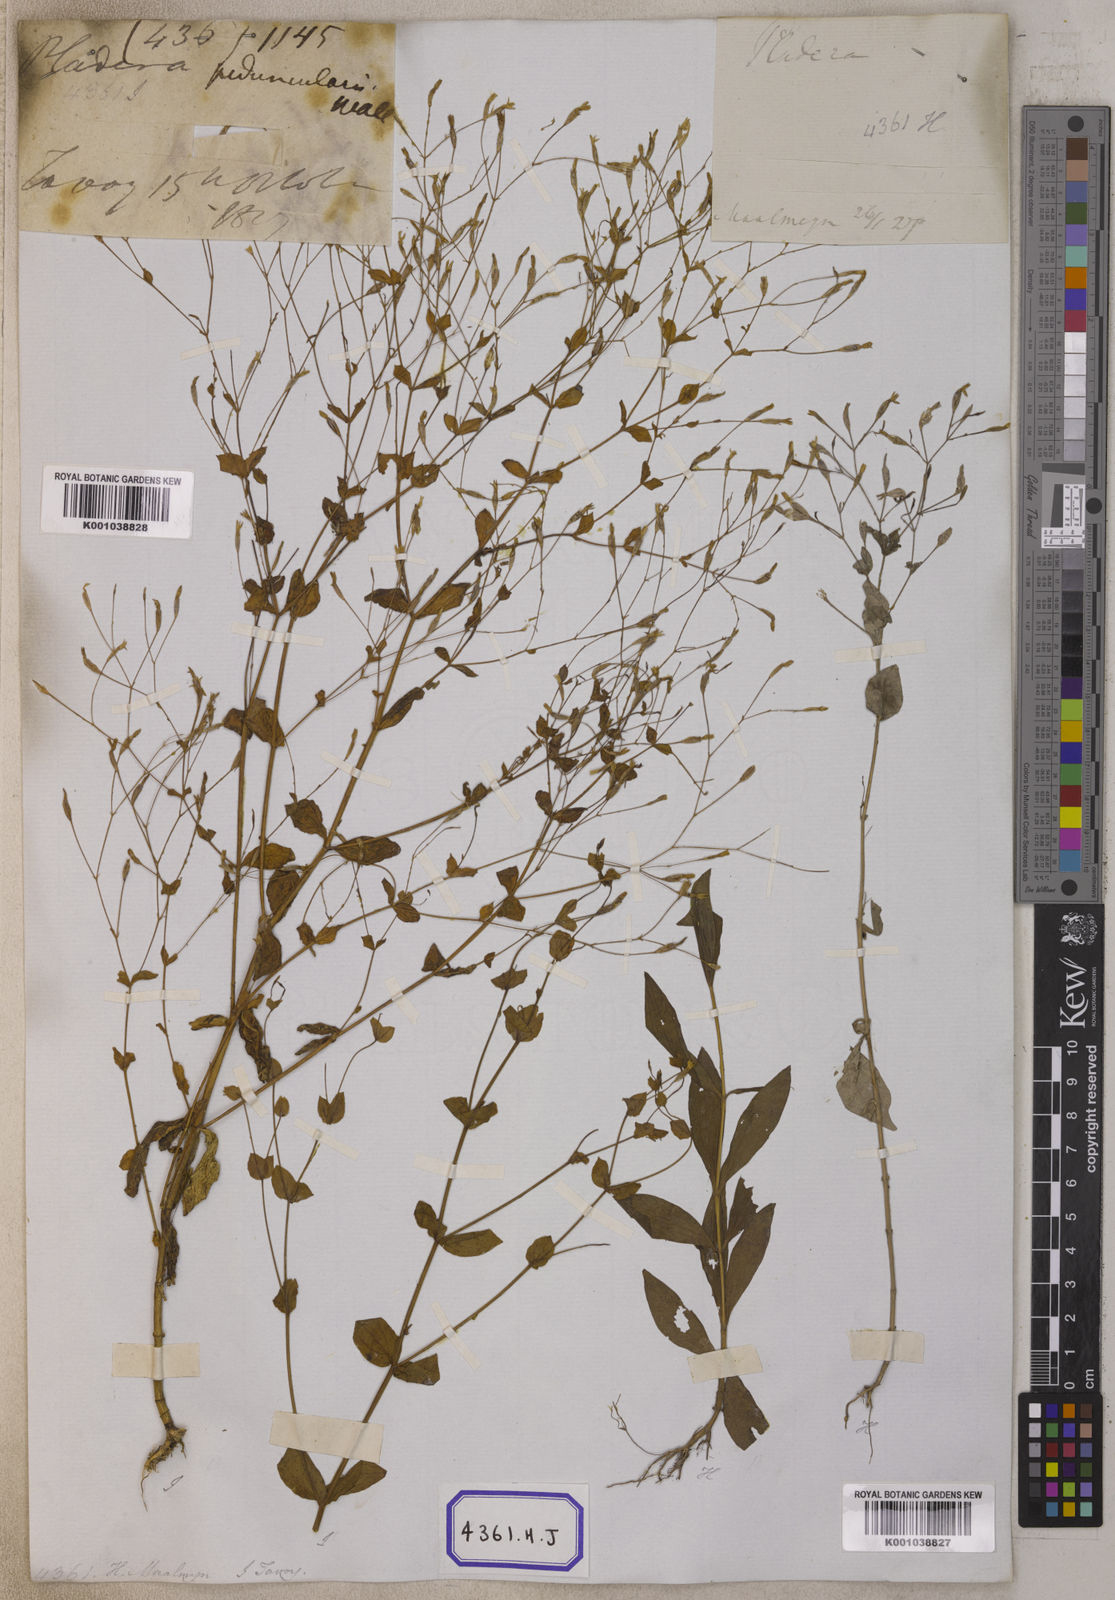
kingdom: Plantae
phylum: Tracheophyta
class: Magnoliopsida
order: Gentianales
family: Gentianaceae
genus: Canscora
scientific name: Canscora
